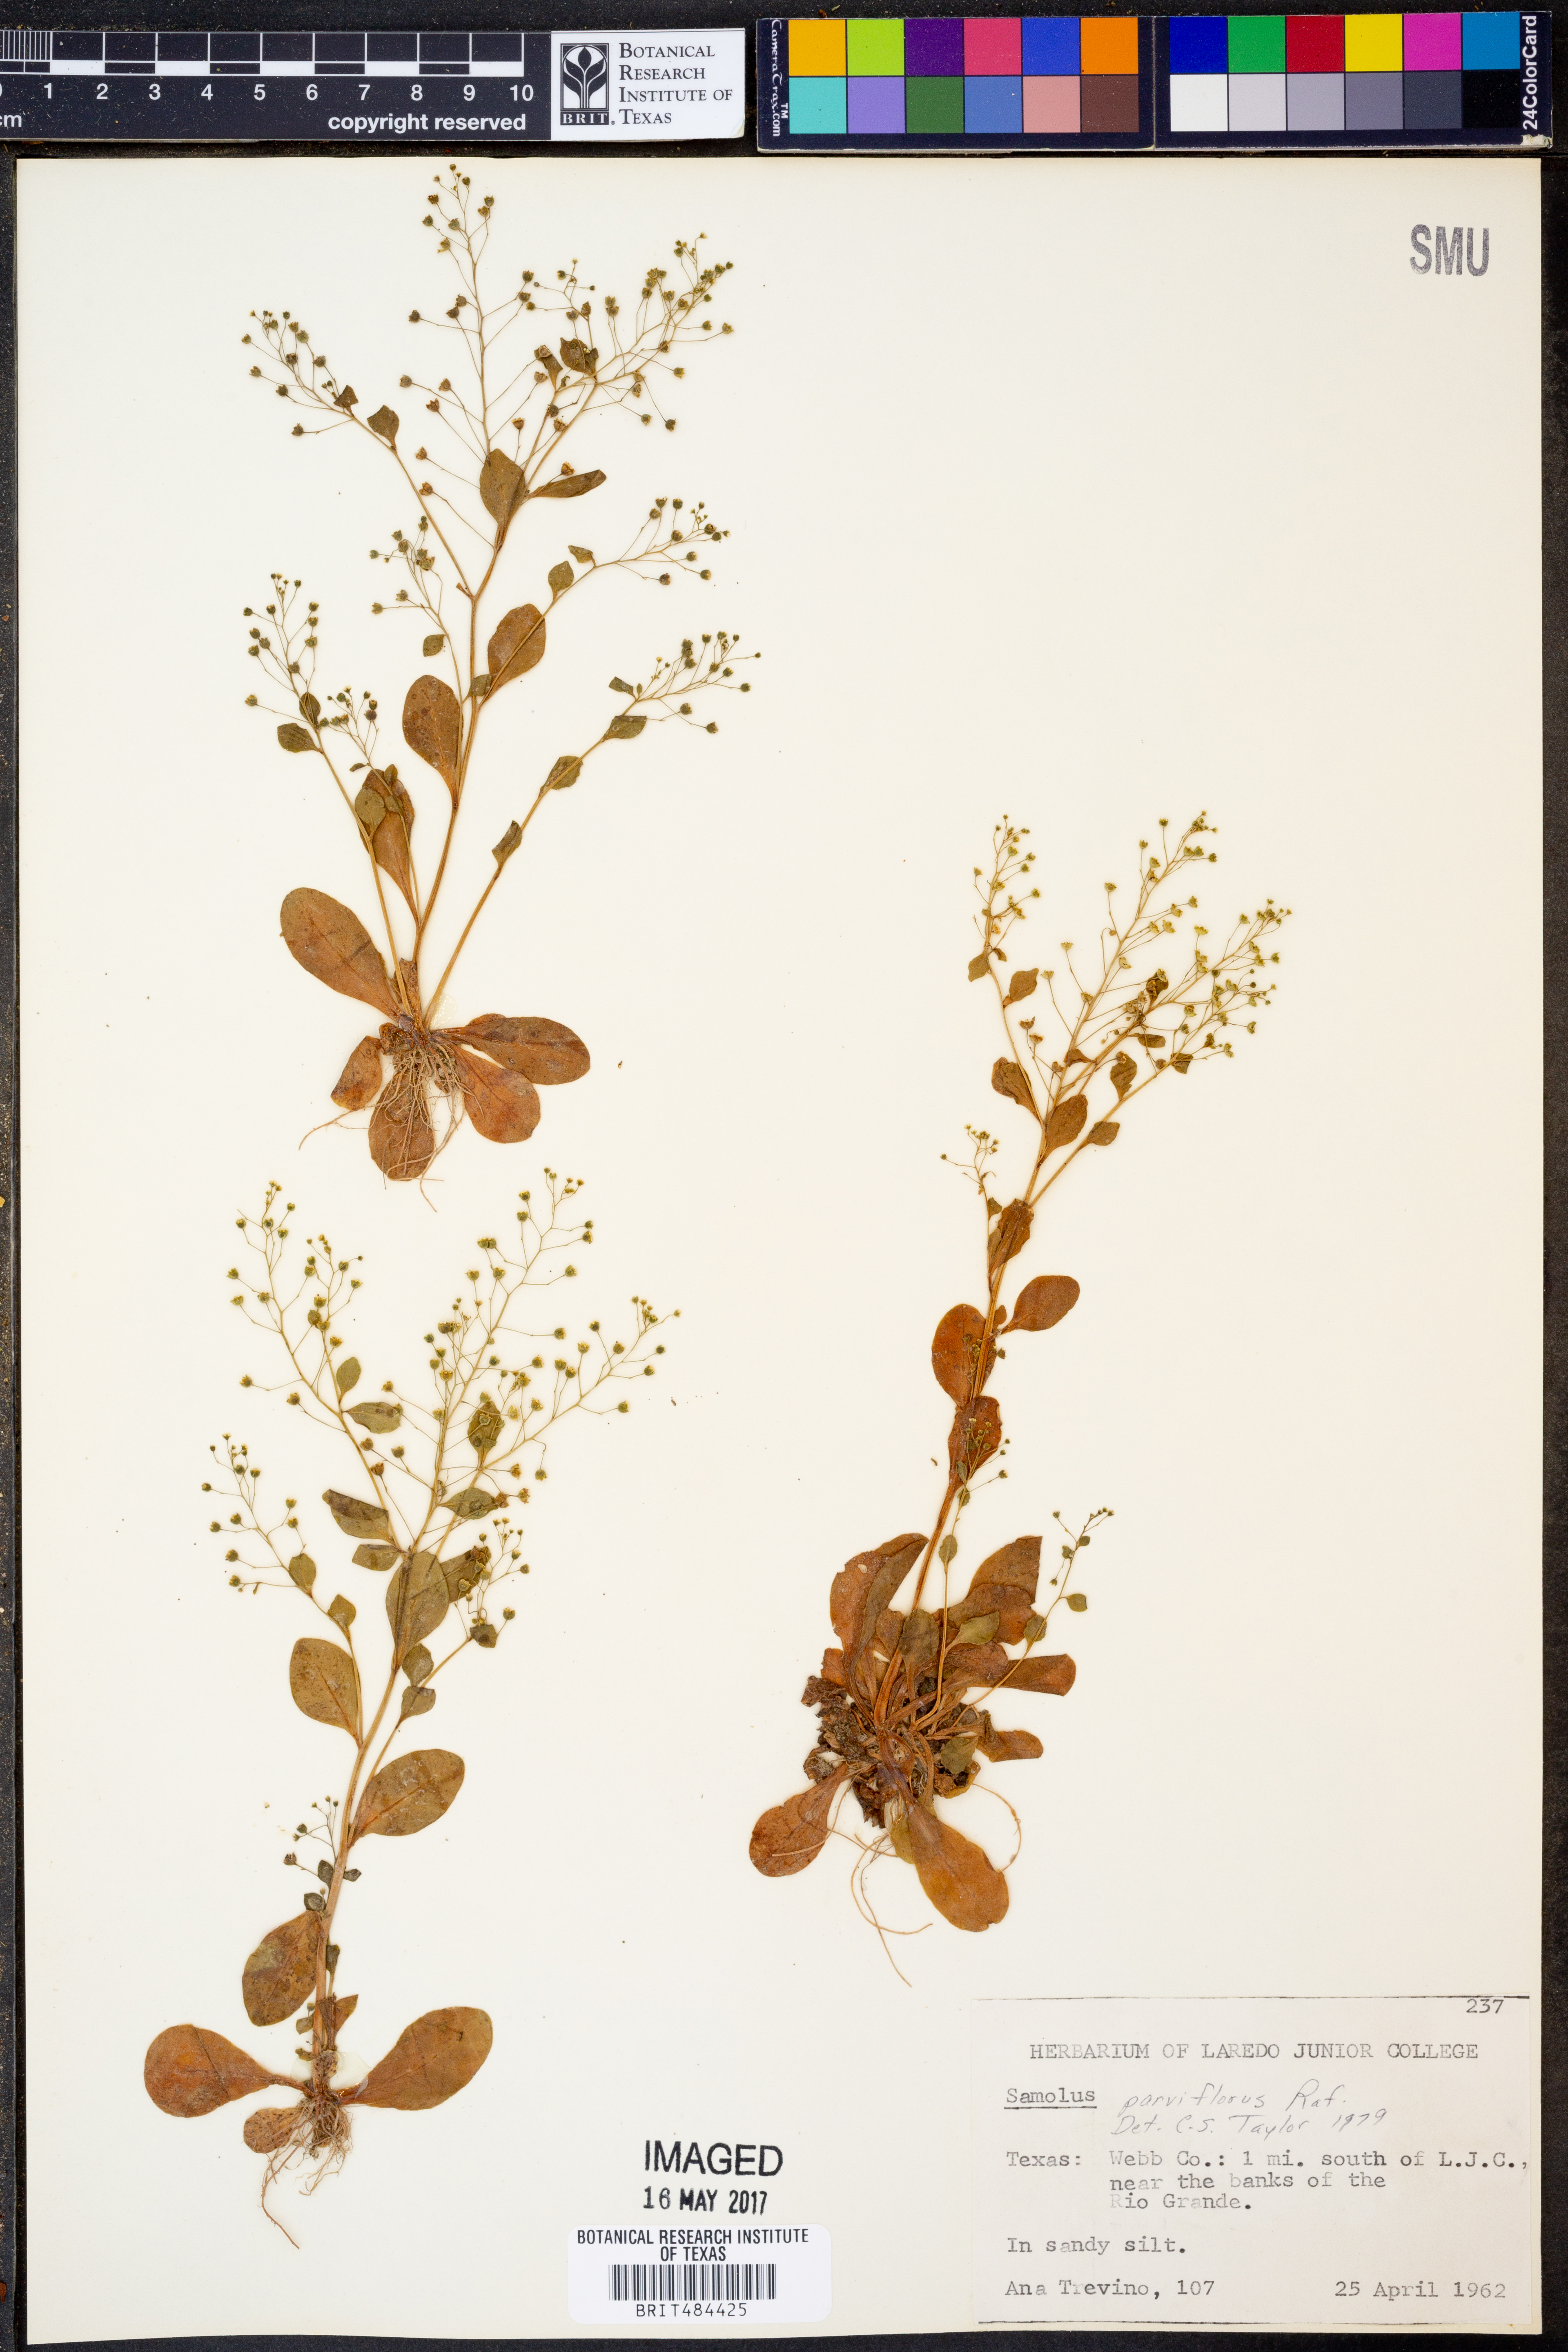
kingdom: Plantae
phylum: Tracheophyta
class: Magnoliopsida
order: Ericales
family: Primulaceae
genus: Samolus
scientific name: Samolus parviflorus
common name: False water pimpernel
